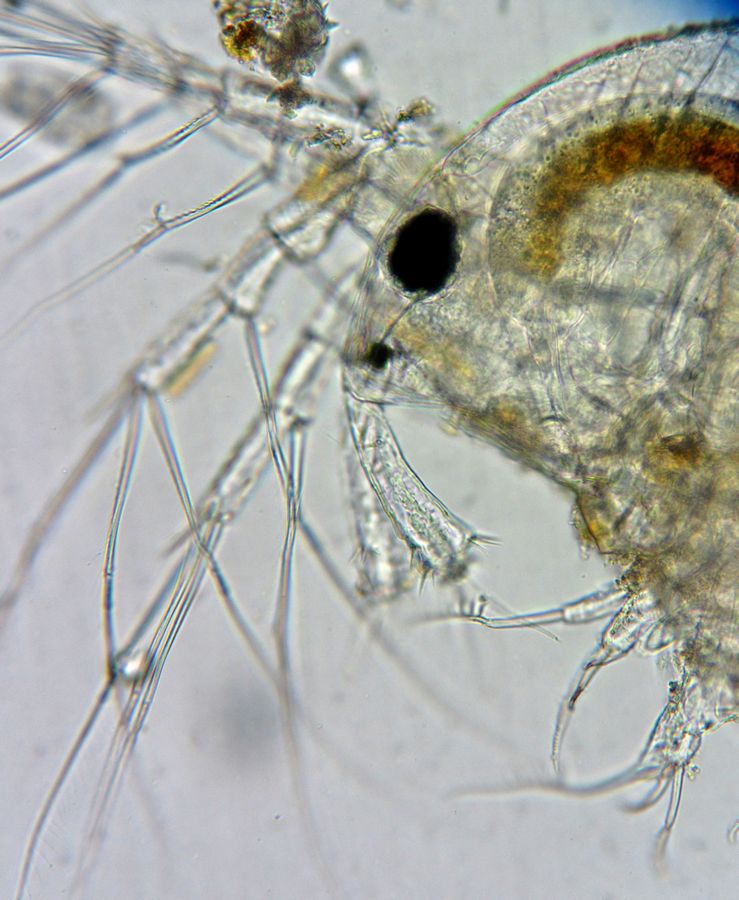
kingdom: Animalia
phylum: Arthropoda
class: Branchiopoda
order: Diplostraca
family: Macrothricidae
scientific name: Macrothricidae
